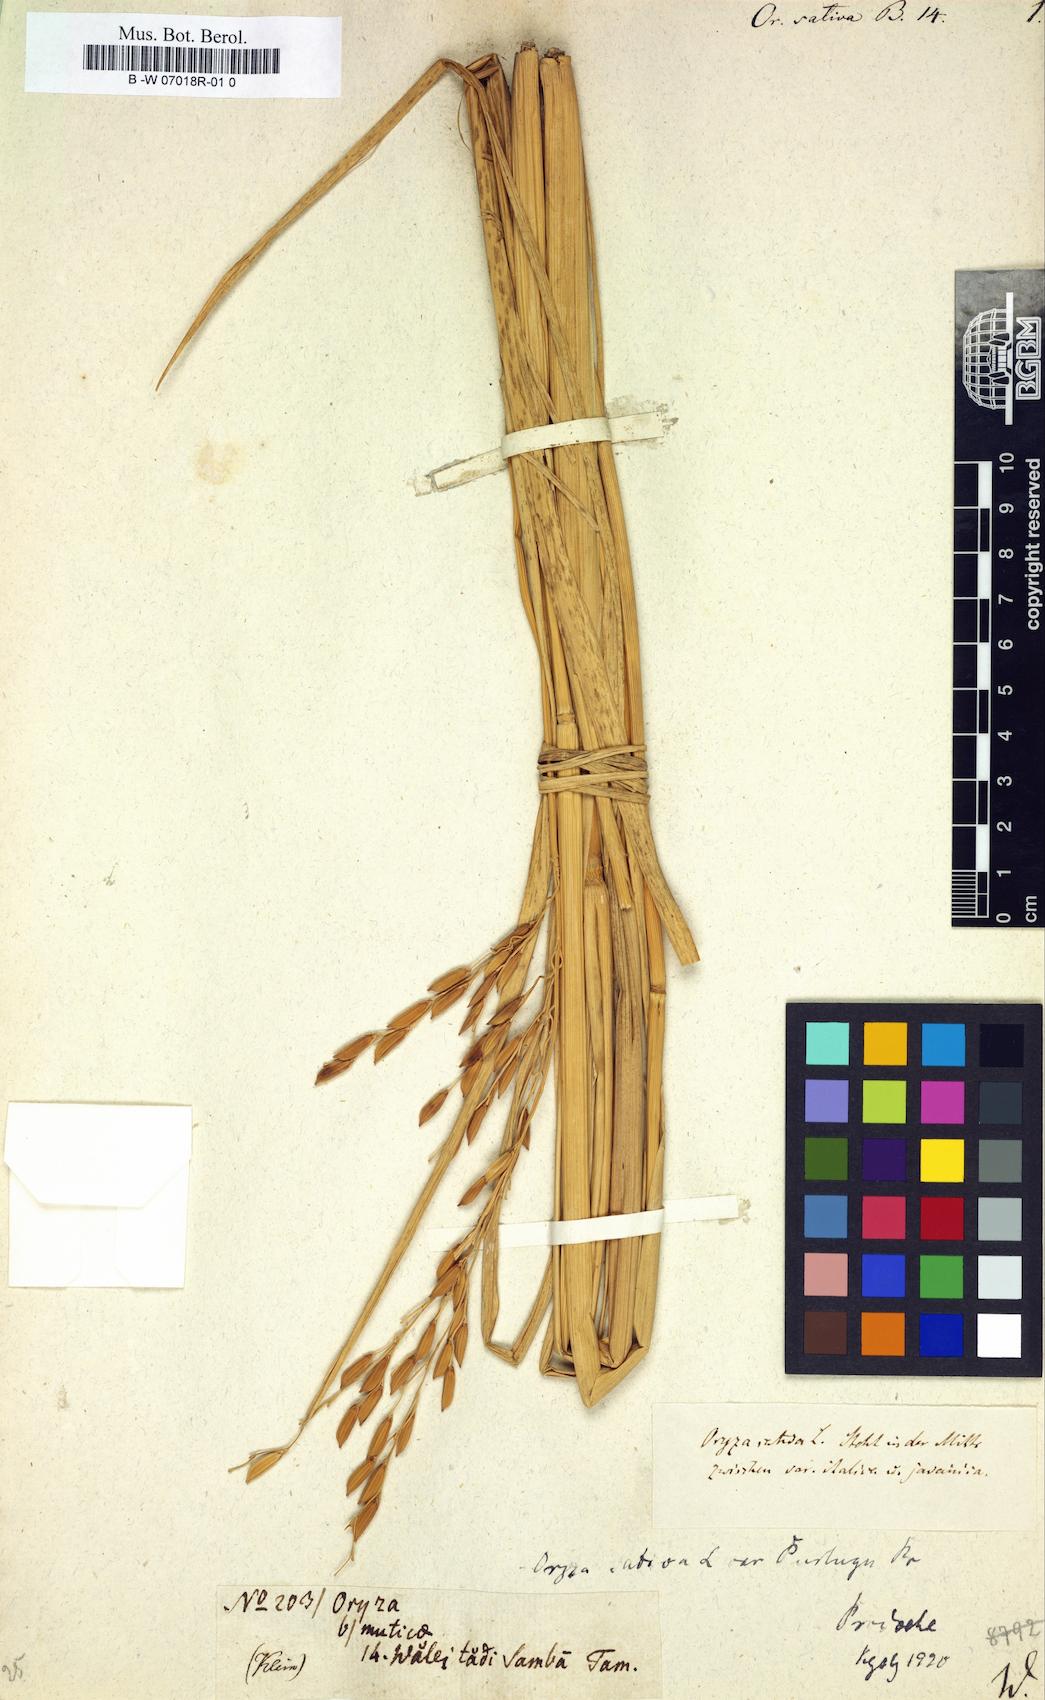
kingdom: Plantae
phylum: Tracheophyta
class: Liliopsida
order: Poales
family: Poaceae
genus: Oryza
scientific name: Oryza sativa
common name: Rice
